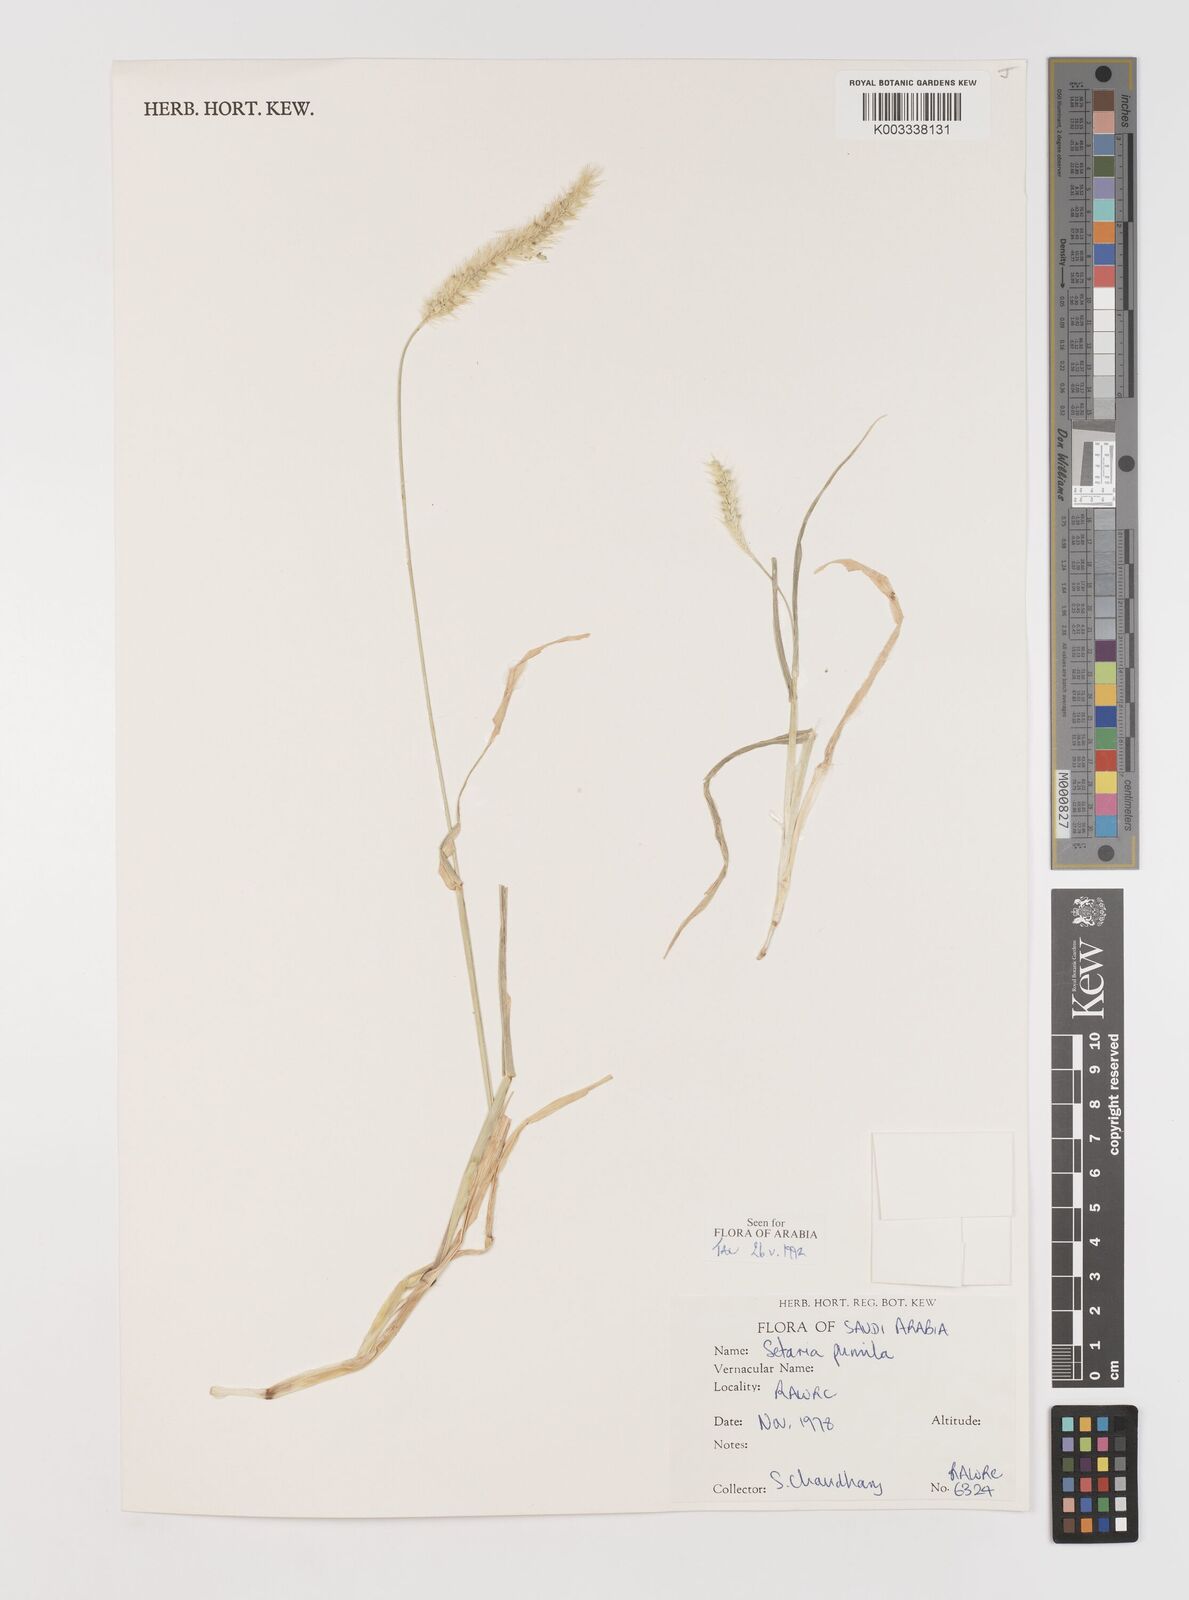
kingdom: Plantae
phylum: Tracheophyta
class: Liliopsida
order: Poales
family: Poaceae
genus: Setaria
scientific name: Setaria pumila
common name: Yellow bristle-grass
